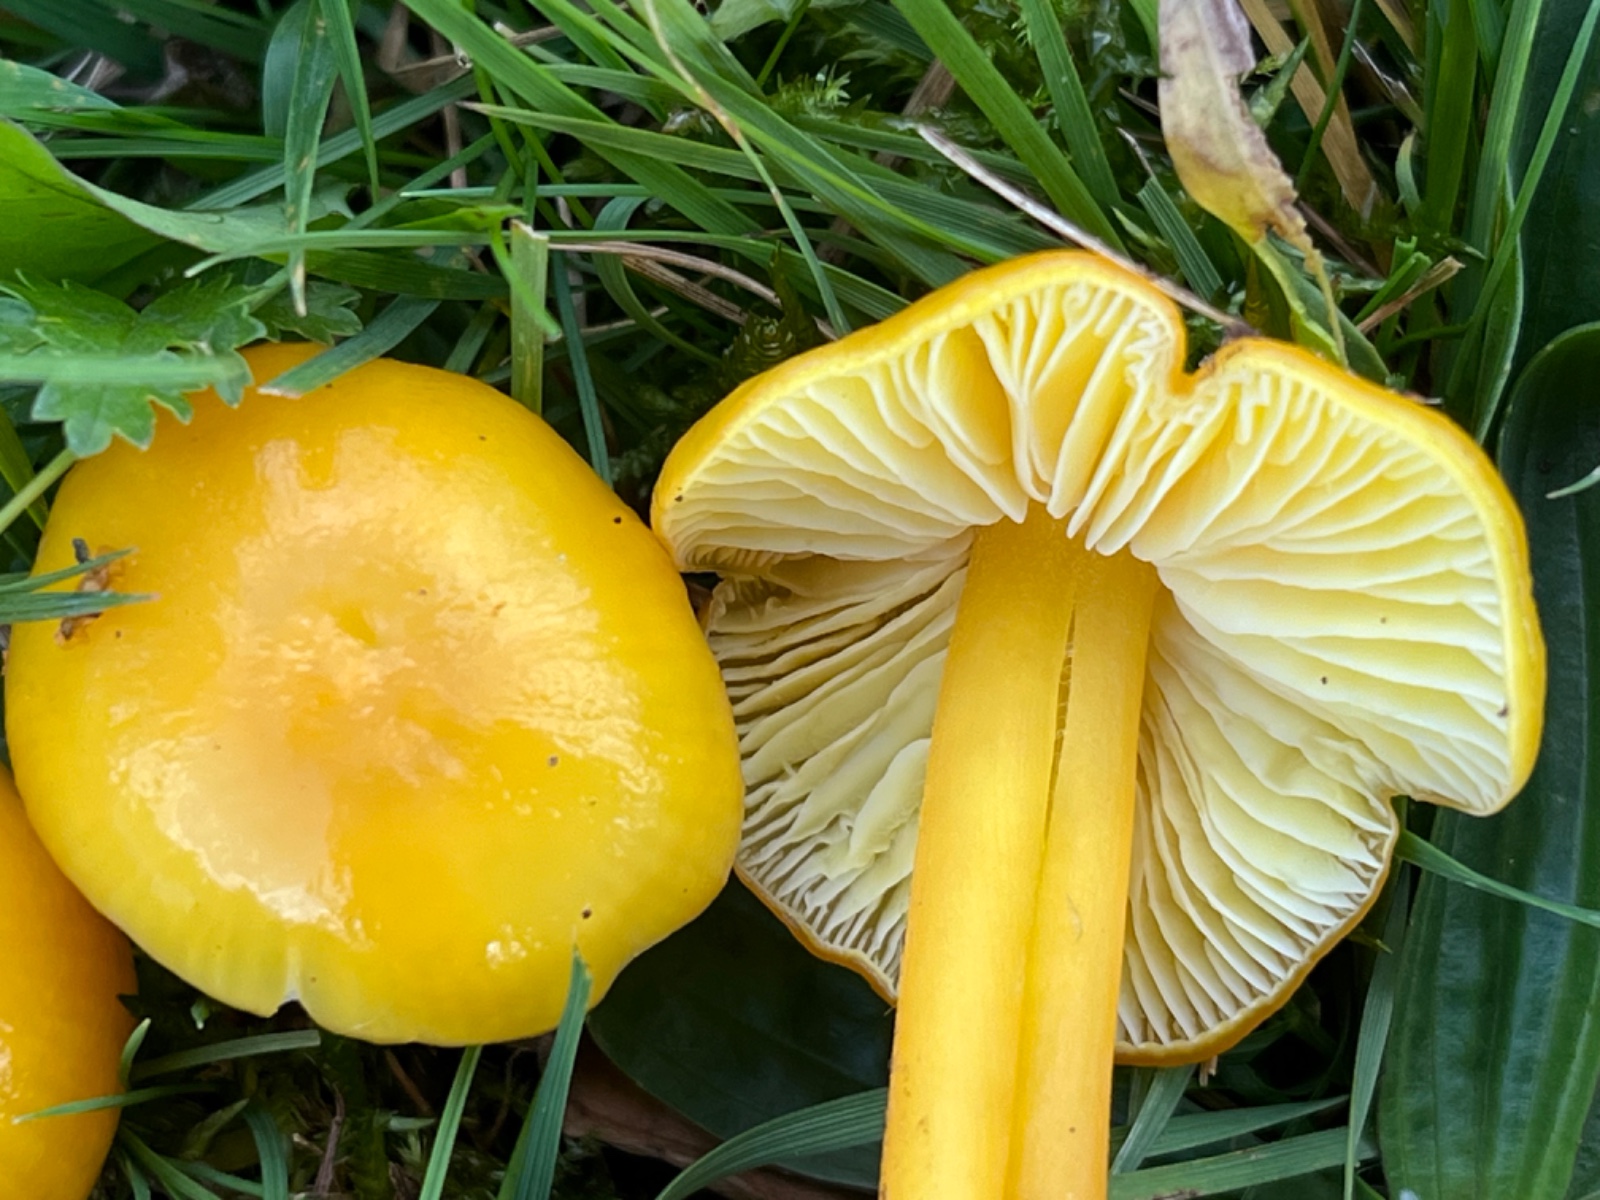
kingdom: Fungi
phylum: Basidiomycota
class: Agaricomycetes
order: Agaricales
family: Hygrophoraceae
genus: Hygrocybe
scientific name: Hygrocybe chlorophana
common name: gul vokshat
